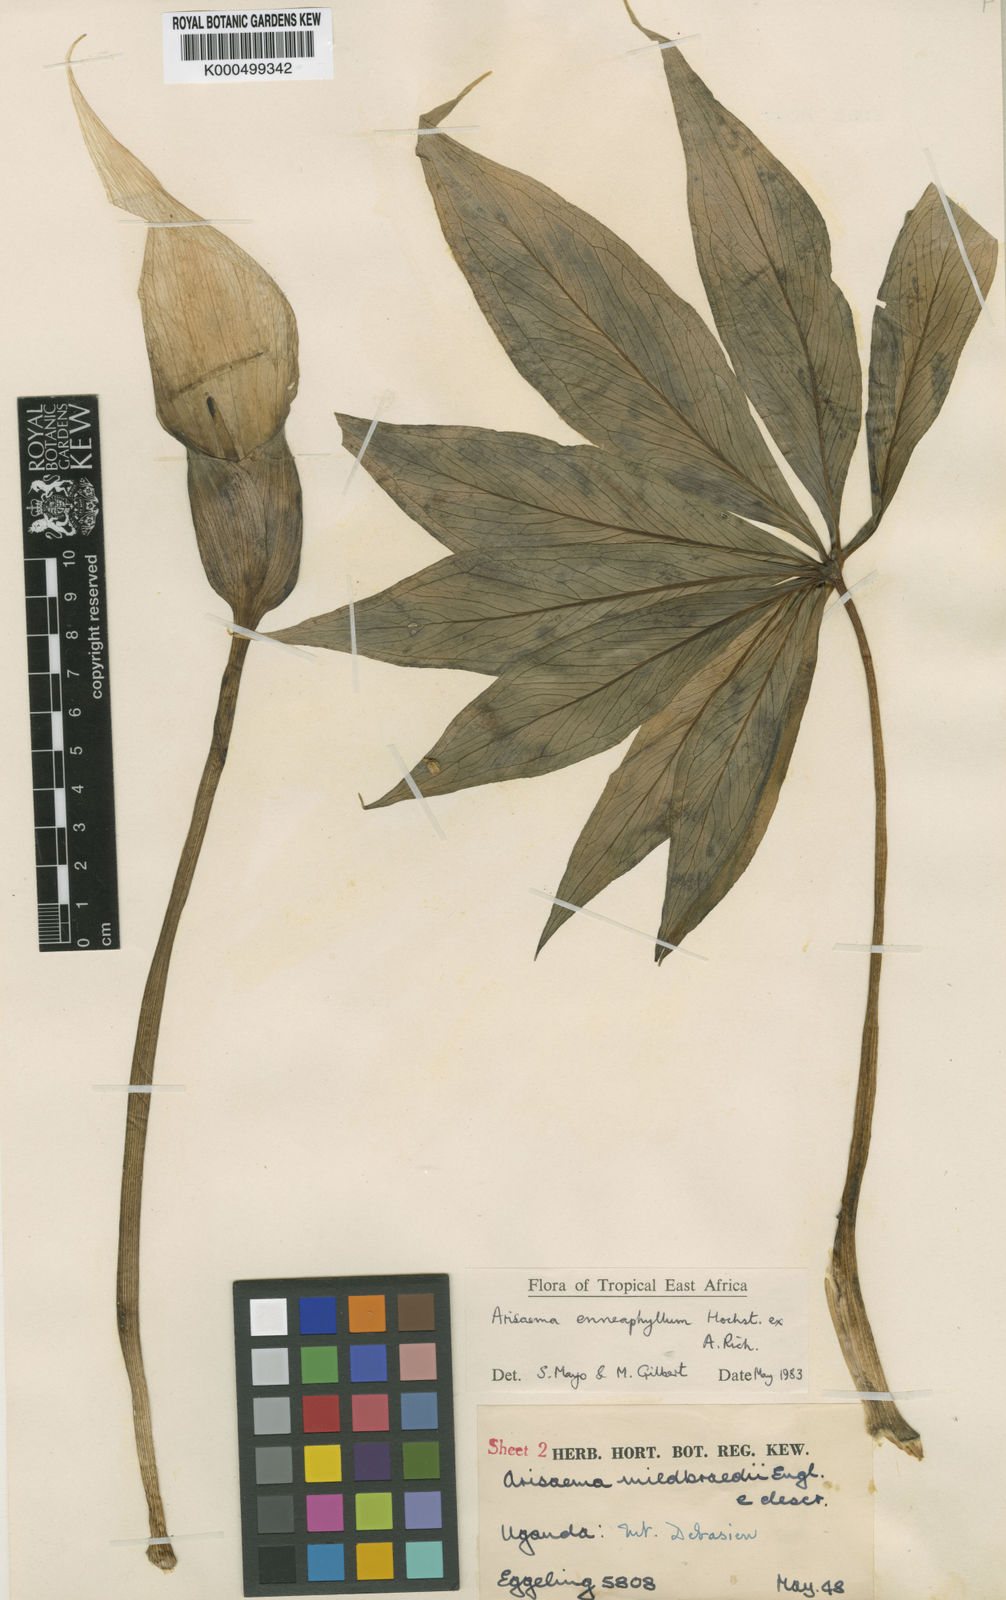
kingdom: Plantae
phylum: Tracheophyta
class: Liliopsida
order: Alismatales
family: Araceae
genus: Arisaema
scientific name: Arisaema
